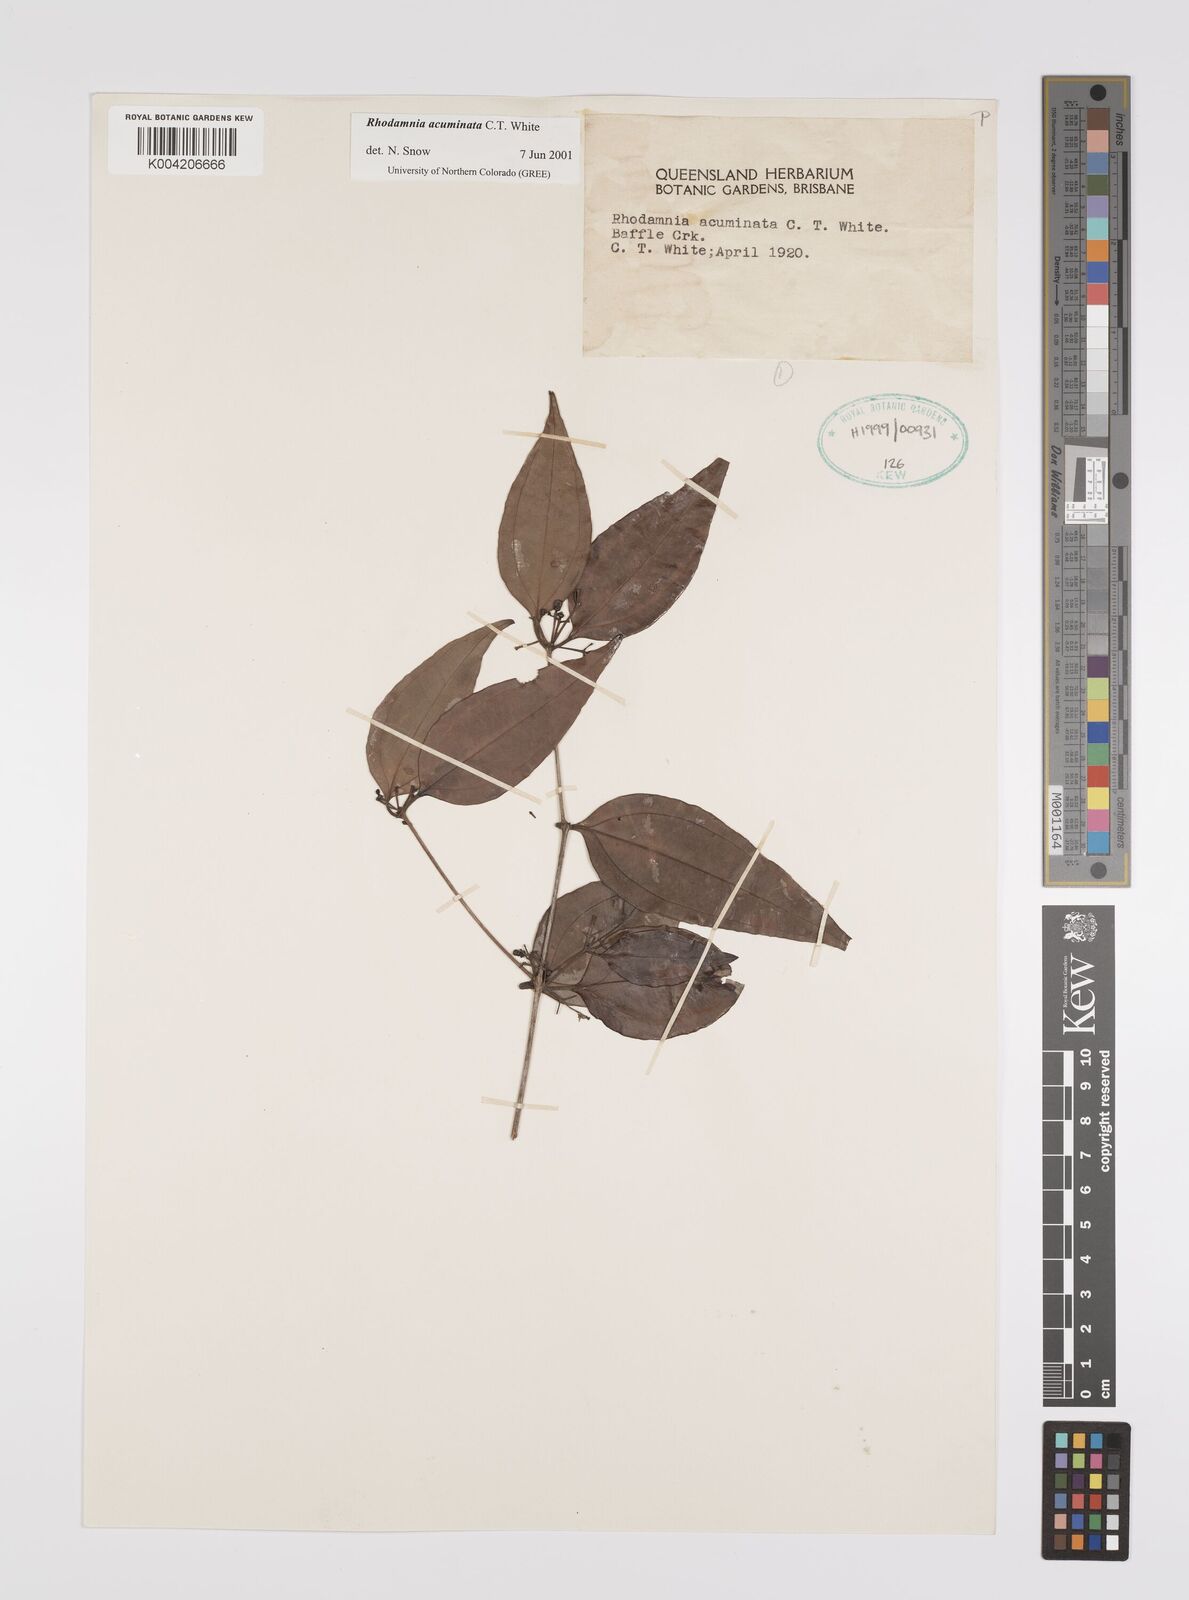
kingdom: Plantae
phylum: Tracheophyta
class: Magnoliopsida
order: Myrtales
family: Myrtaceae
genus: Rhodamnia
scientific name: Rhodamnia acuminata
